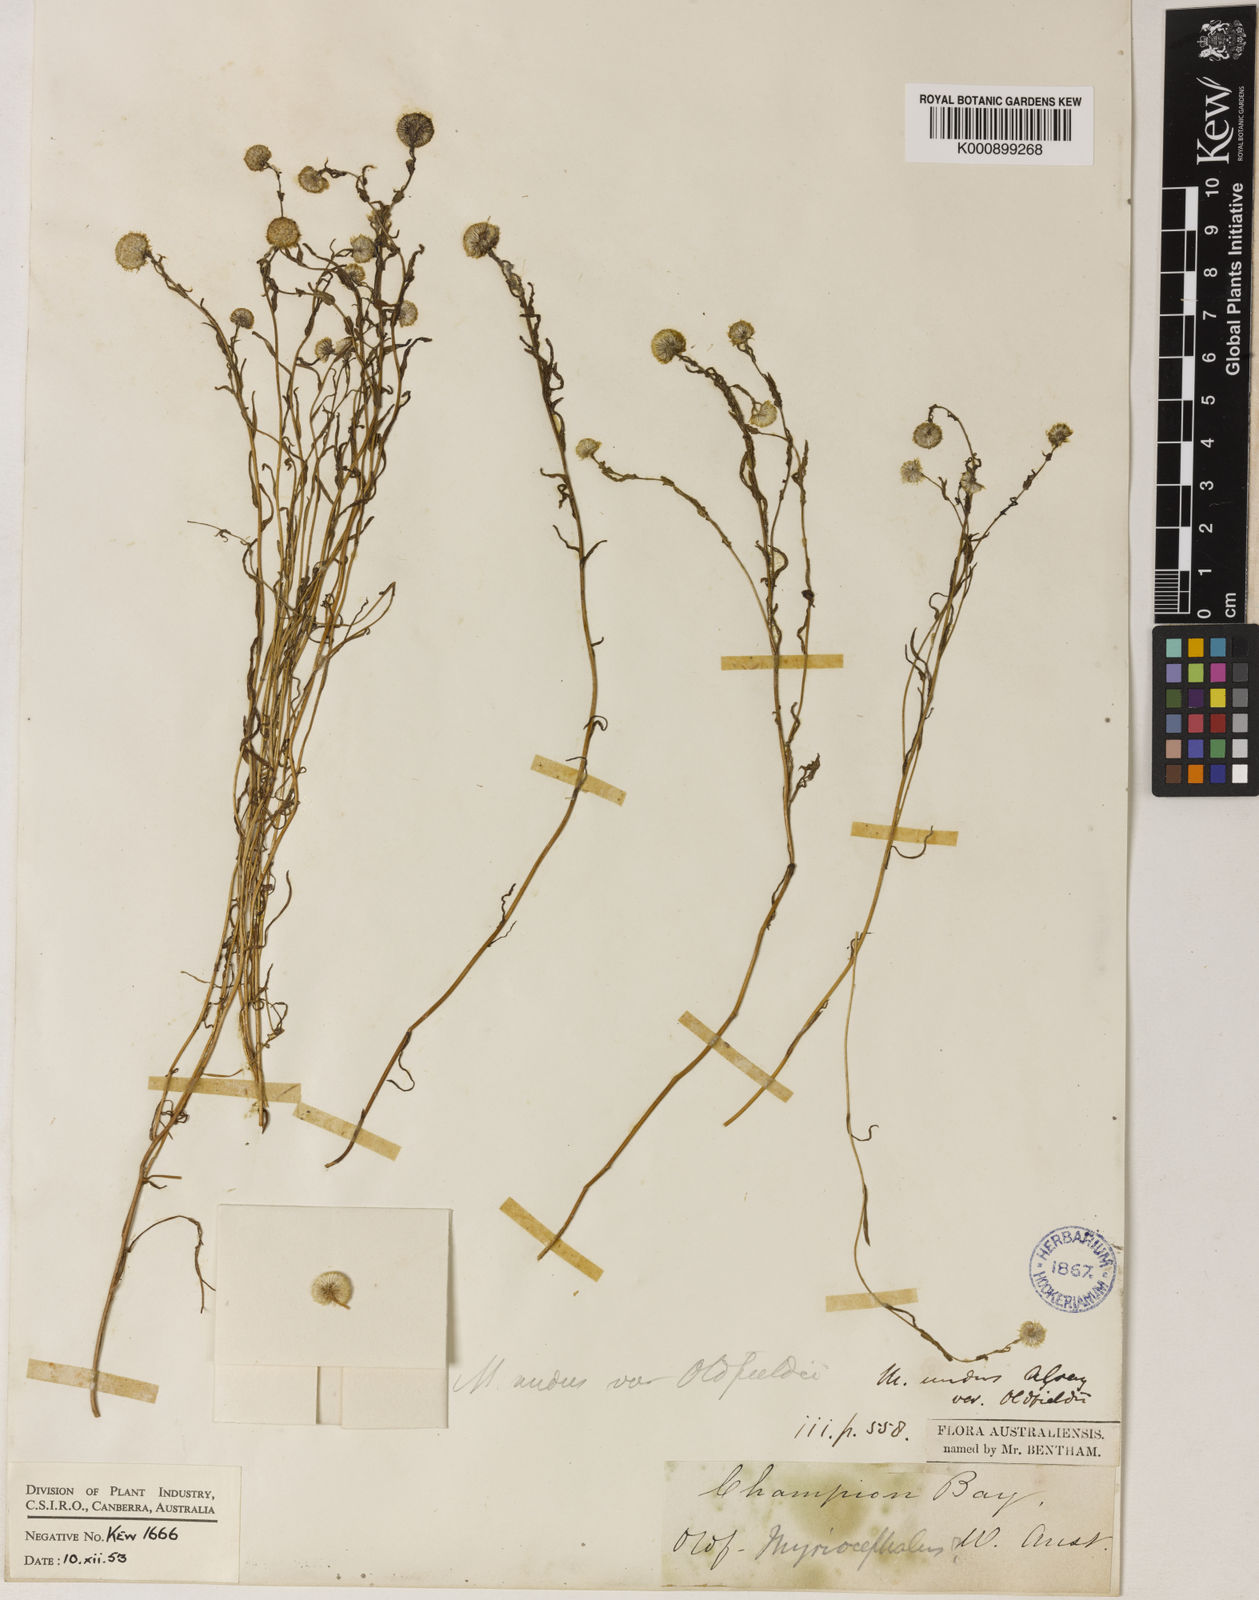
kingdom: Plantae
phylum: Tracheophyta
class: Magnoliopsida
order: Asterales
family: Asteraceae
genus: Myriocephalus
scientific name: Myriocephalus oldfieldii
